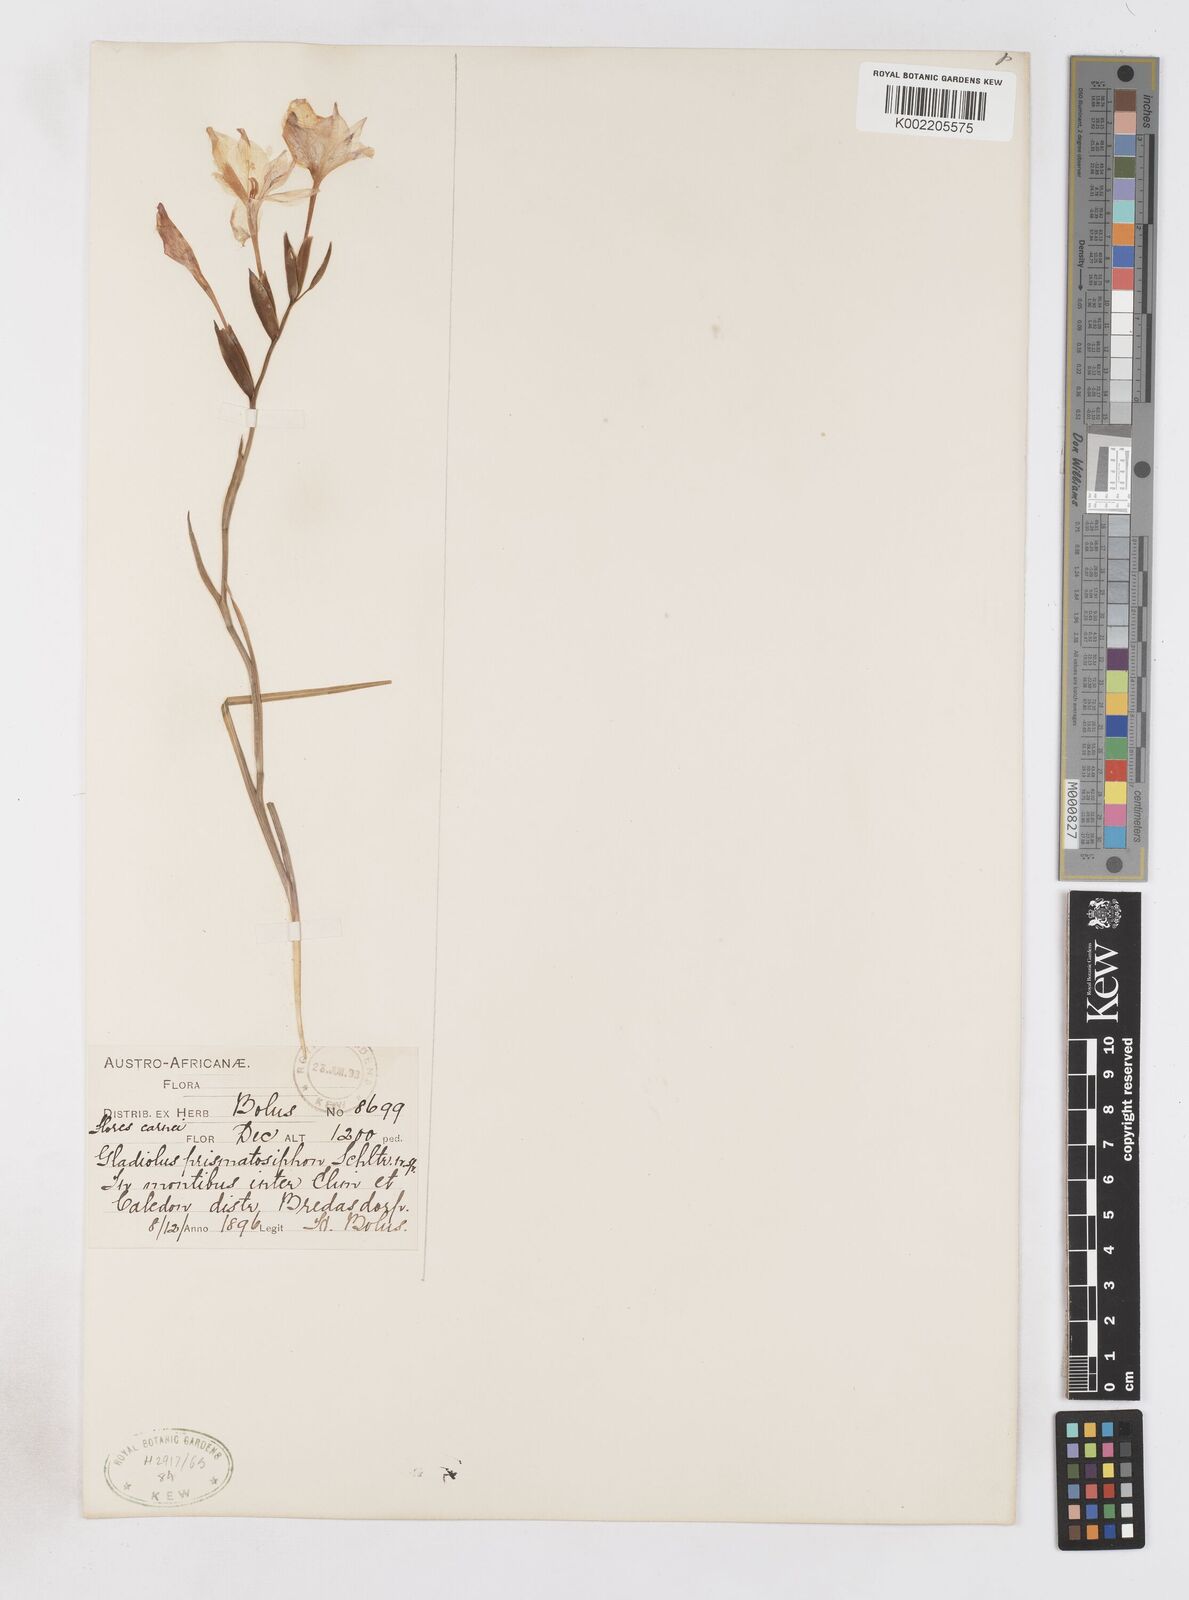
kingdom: Plantae
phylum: Tracheophyta
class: Liliopsida
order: Asparagales
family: Iridaceae
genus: Gladiolus
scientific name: Gladiolus carneus
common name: Painted-lady
